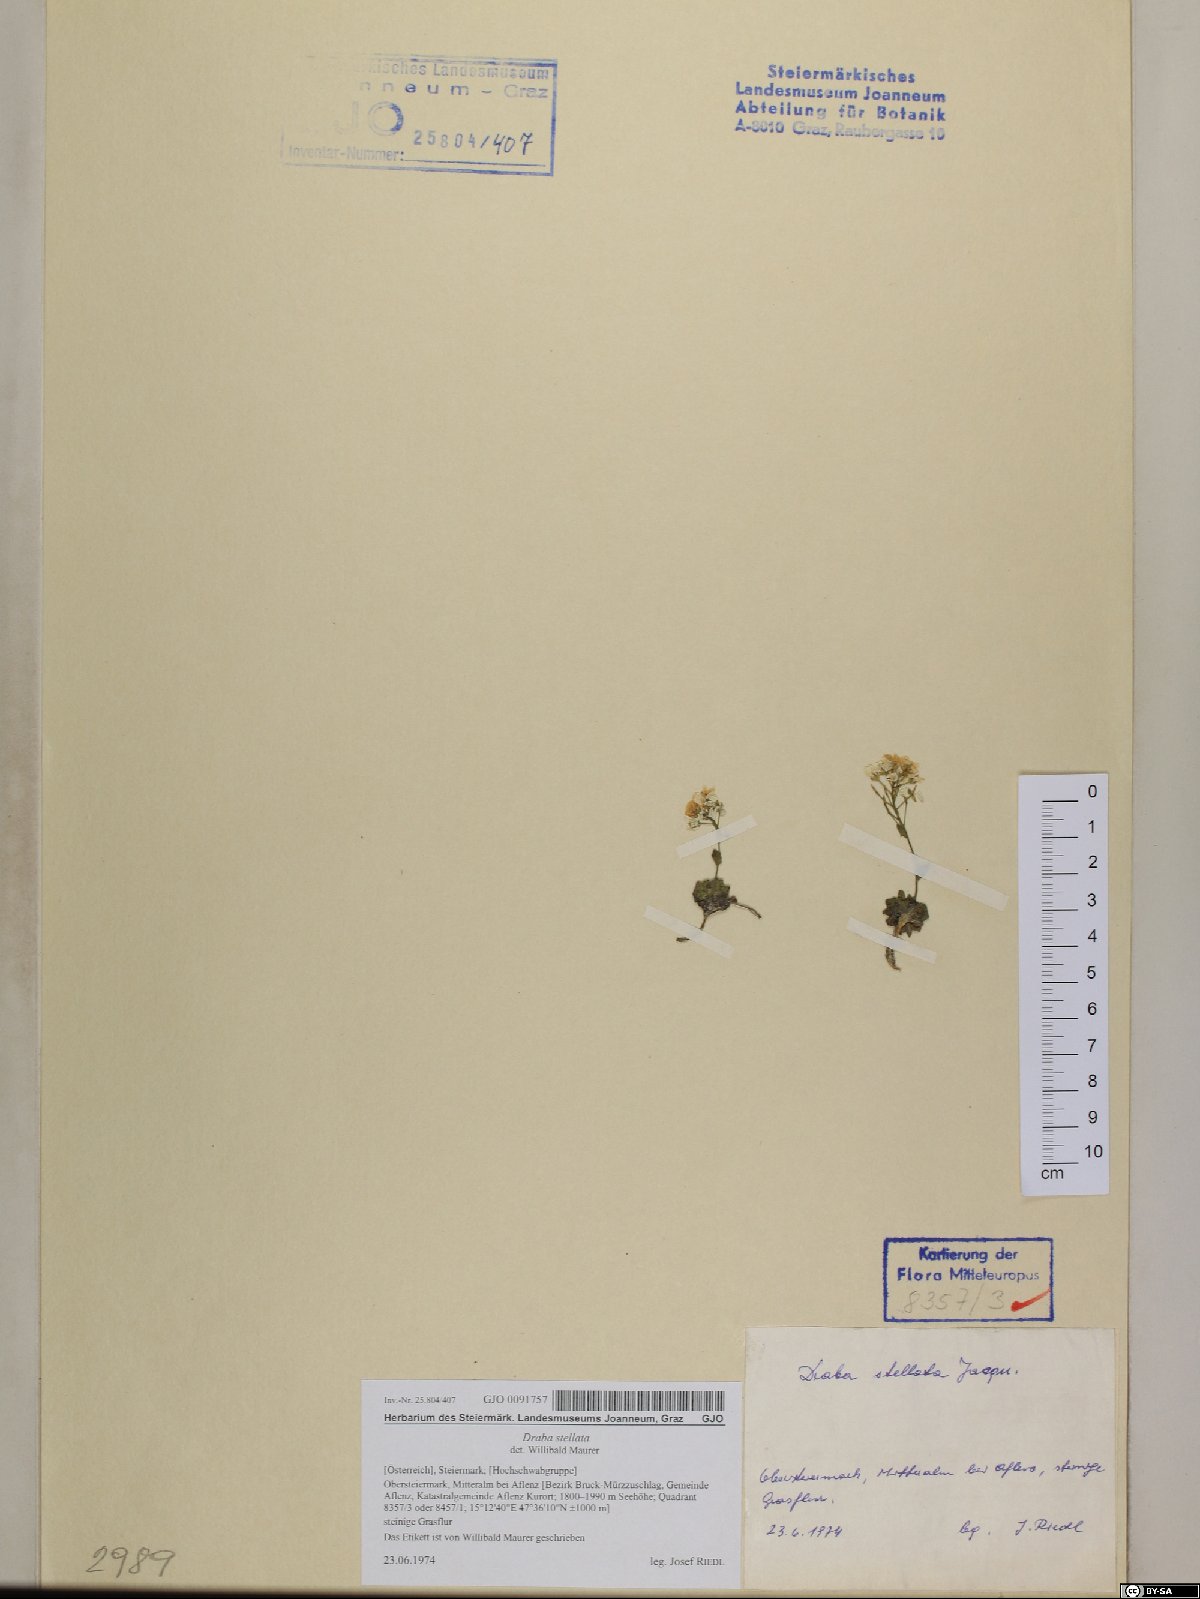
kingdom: Plantae
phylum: Tracheophyta
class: Magnoliopsida
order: Brassicales
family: Brassicaceae
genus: Draba
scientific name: Draba stellata
